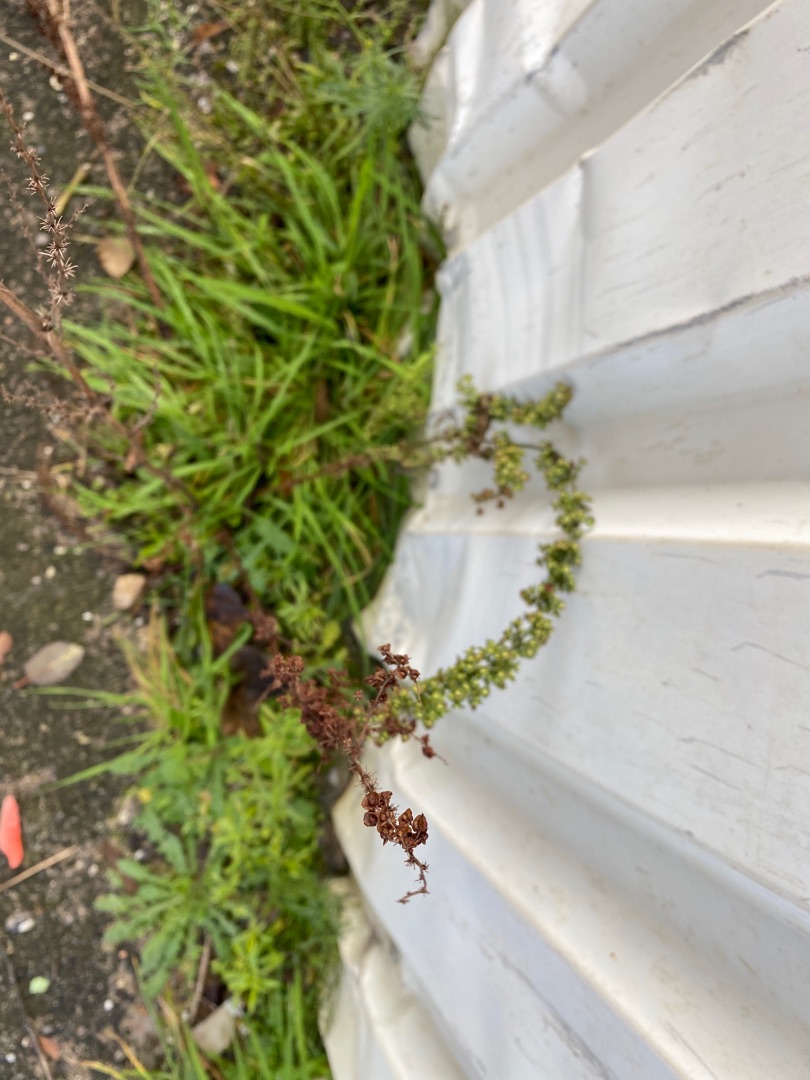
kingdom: Plantae
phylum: Tracheophyta
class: Magnoliopsida
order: Caryophyllales
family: Polygonaceae
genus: Rumex
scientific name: Rumex crispus
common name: Kruset skræppe
